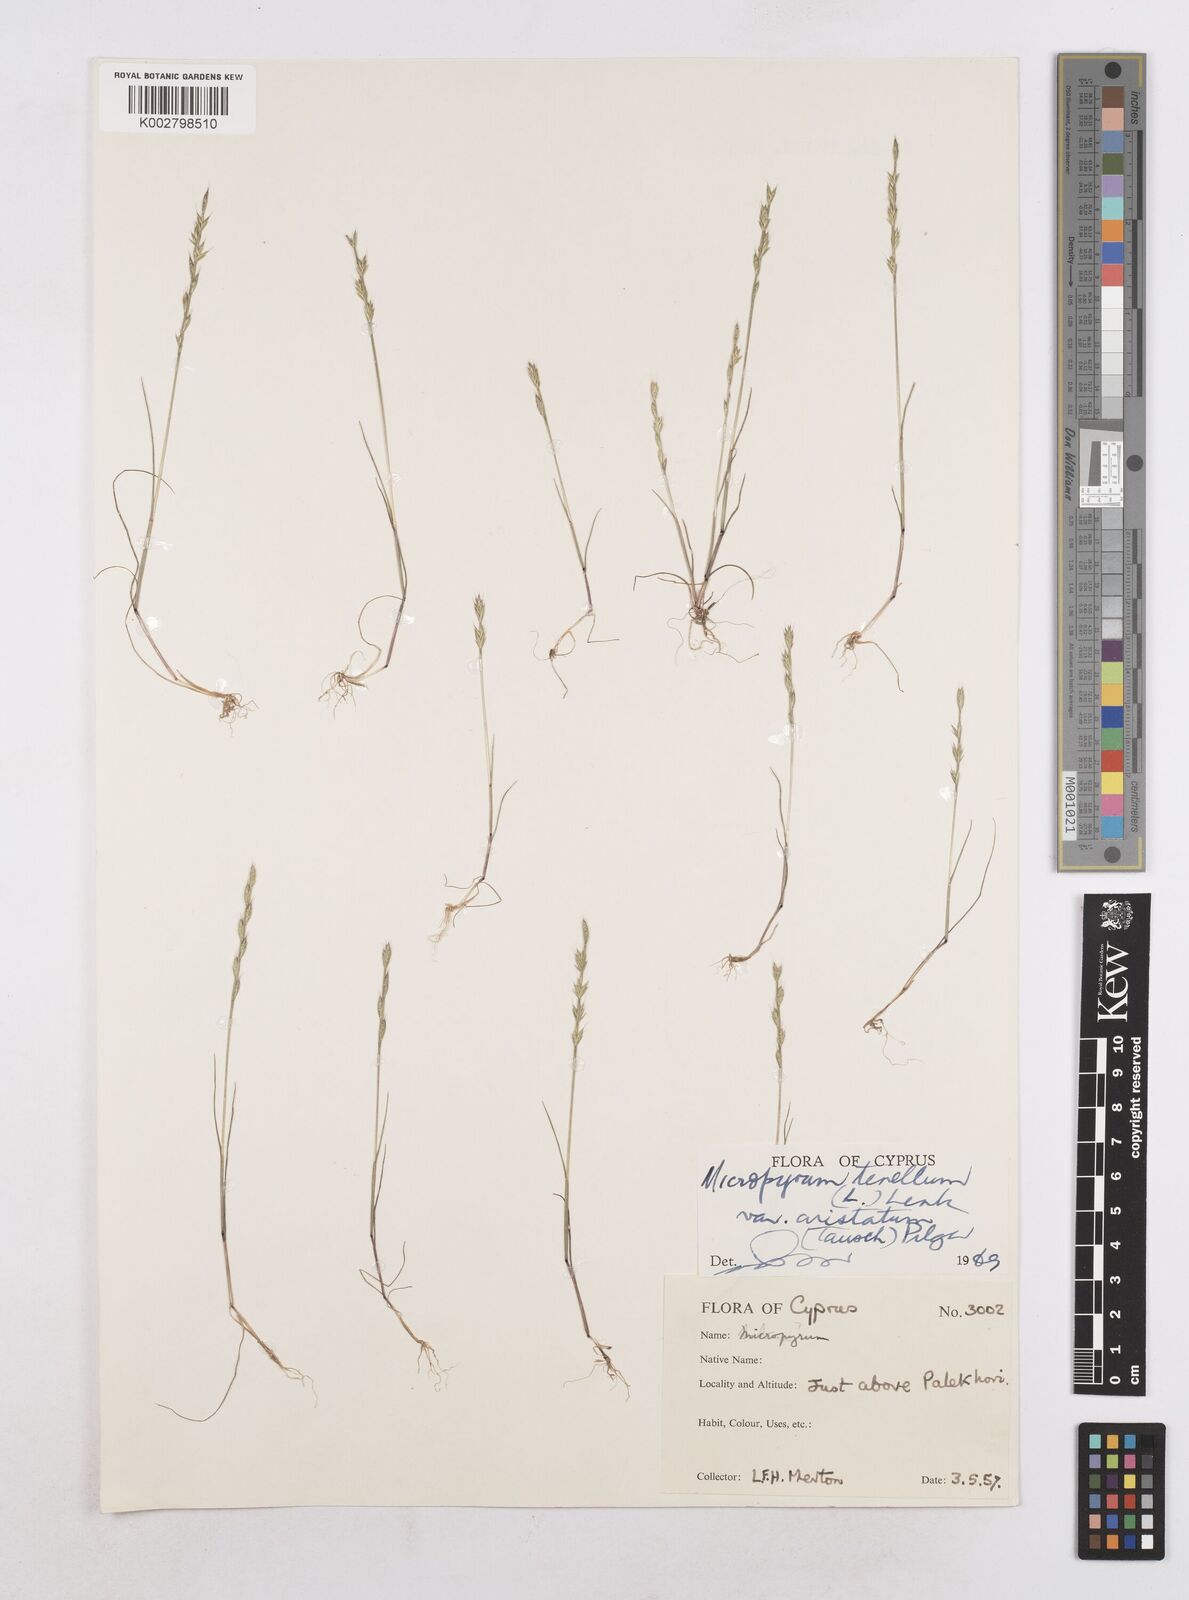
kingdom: Plantae
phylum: Tracheophyta
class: Liliopsida
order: Poales
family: Poaceae
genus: Festuca
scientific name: Festuca lachenalii
